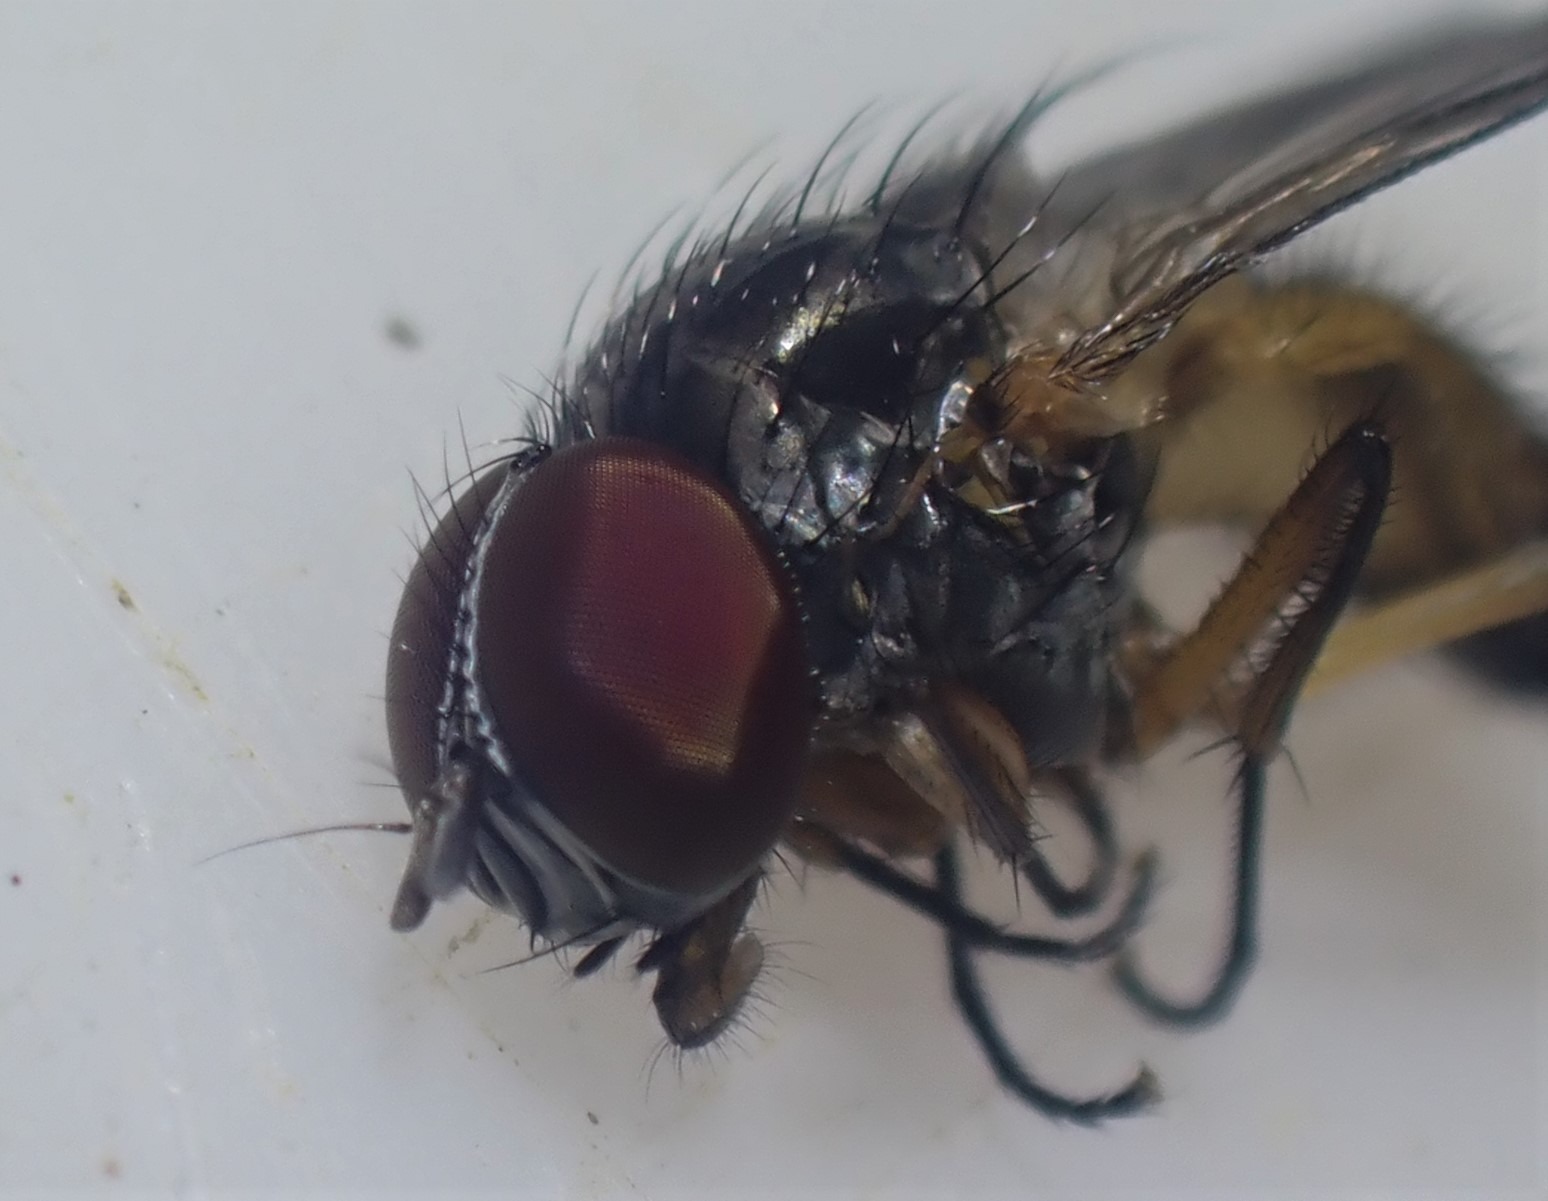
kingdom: Animalia
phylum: Arthropoda
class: Insecta
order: Diptera
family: Fanniidae
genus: Fannia
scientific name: Fannia posticata
